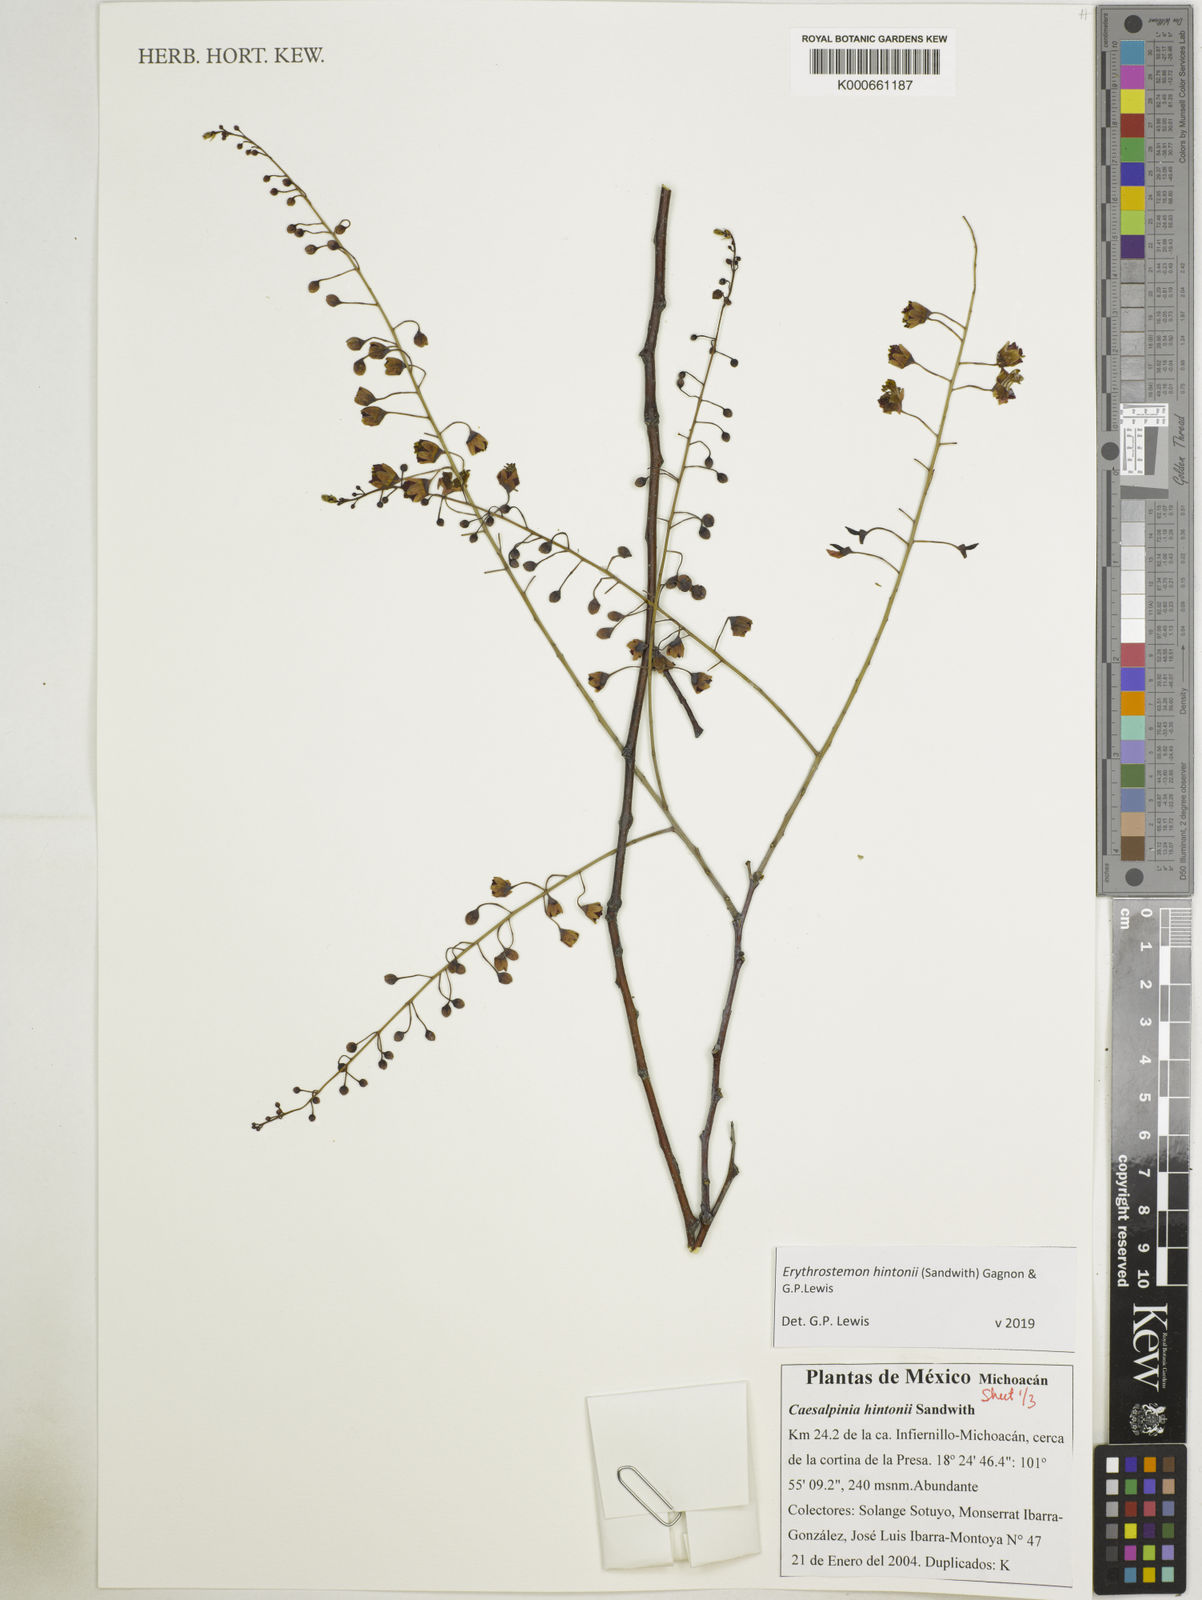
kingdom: Plantae
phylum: Tracheophyta
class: Magnoliopsida
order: Fabales
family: Fabaceae
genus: Erythrostemon
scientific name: Erythrostemon hintonii
